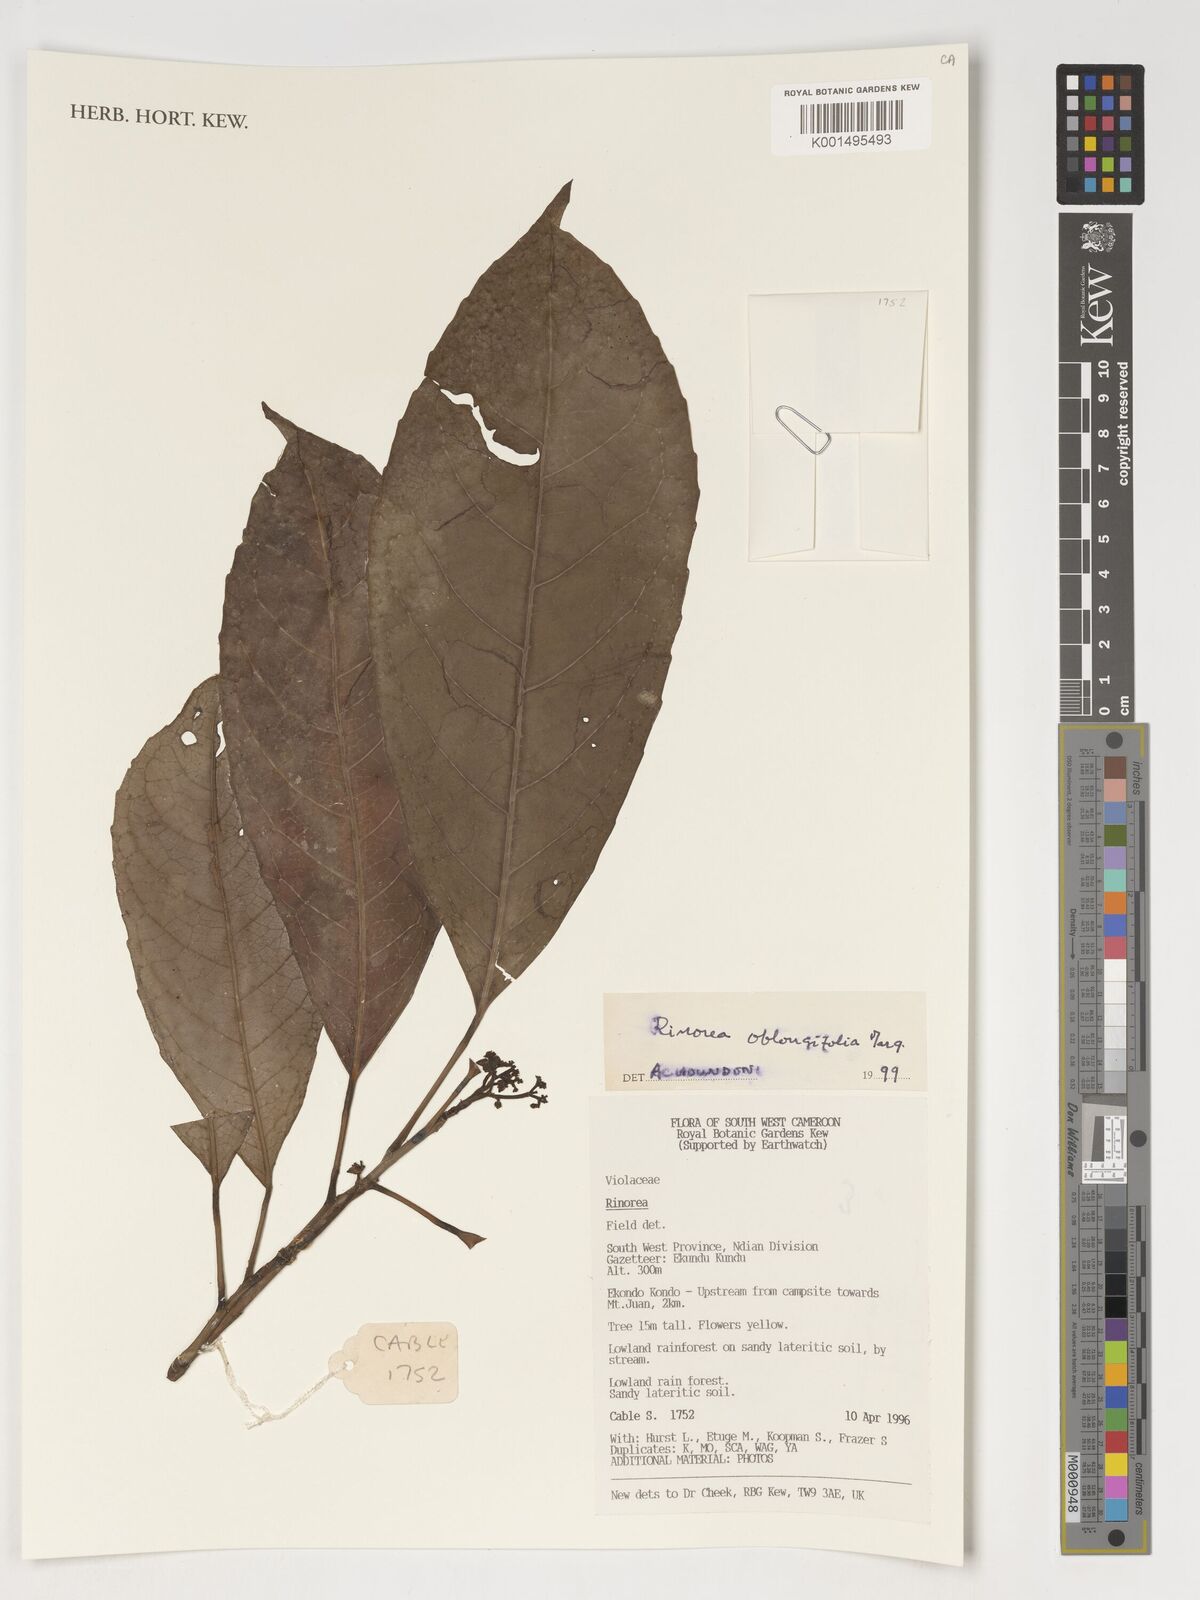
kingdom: Plantae
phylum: Tracheophyta
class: Magnoliopsida
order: Apiales
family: Pittosporaceae
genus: Marianthus
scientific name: Marianthus coeruleopunctatus
